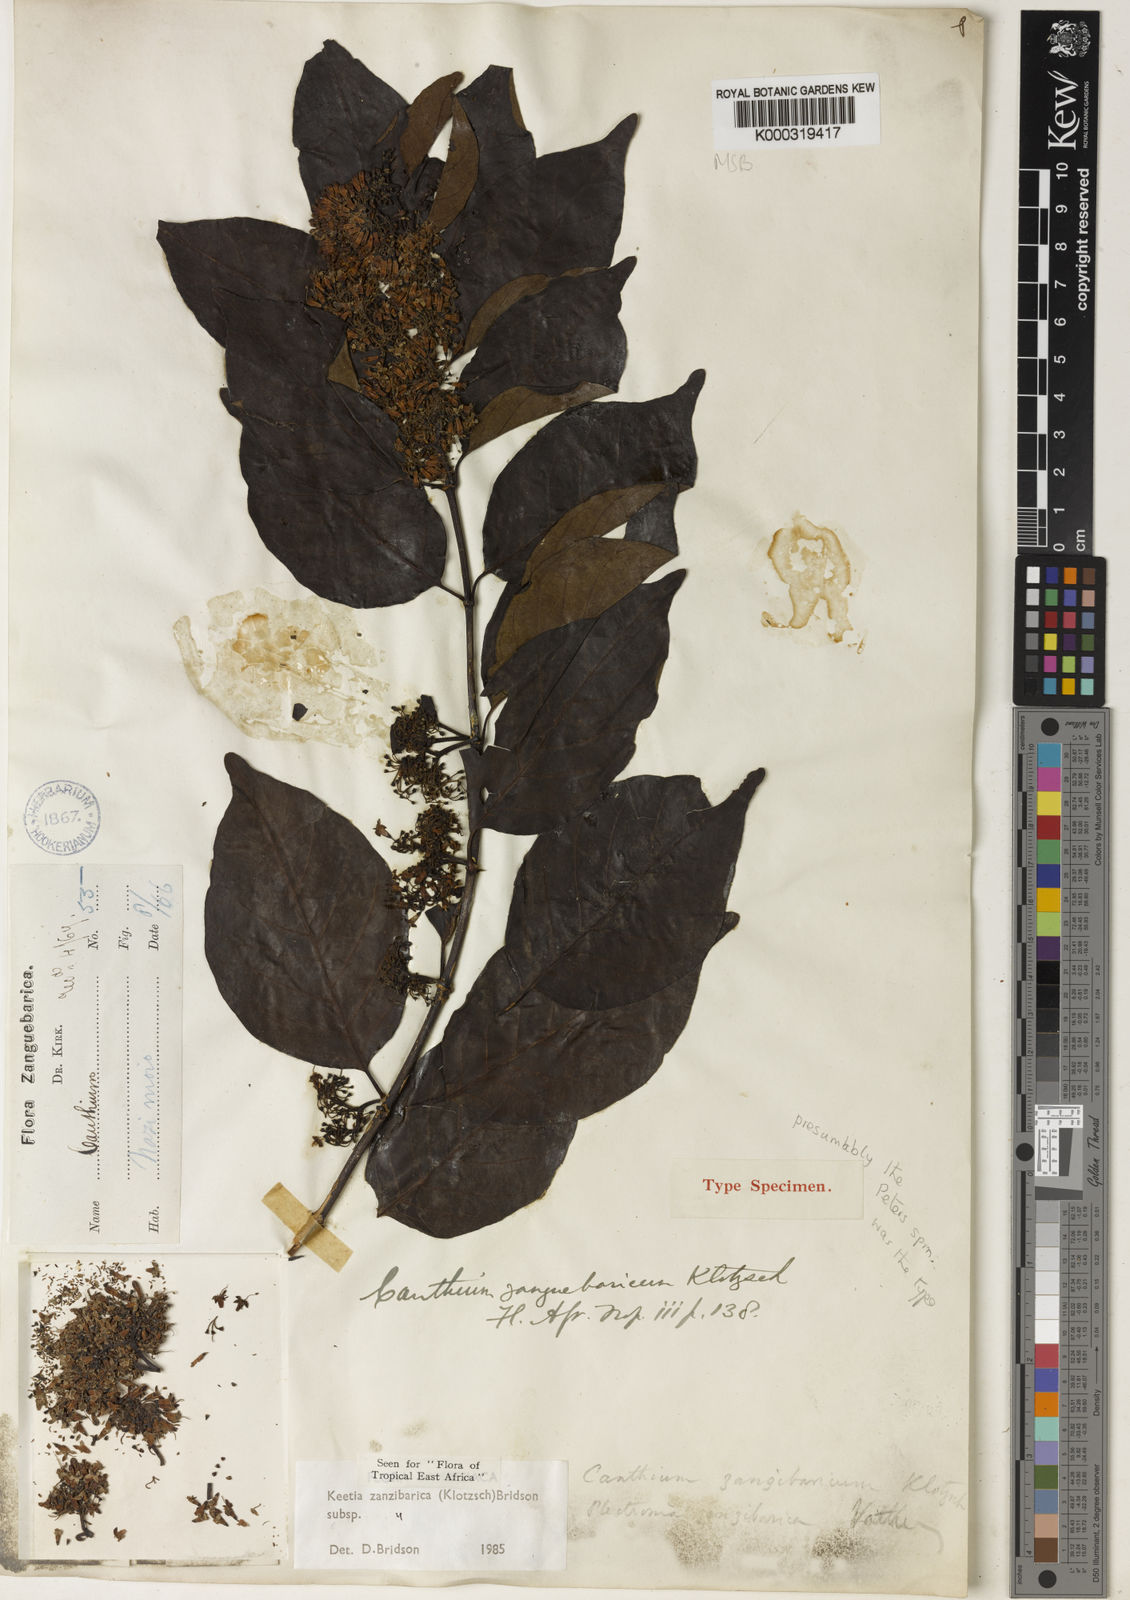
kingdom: Plantae
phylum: Tracheophyta
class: Magnoliopsida
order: Gentianales
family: Rubiaceae
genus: Keetia
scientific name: Keetia zanzibarica
